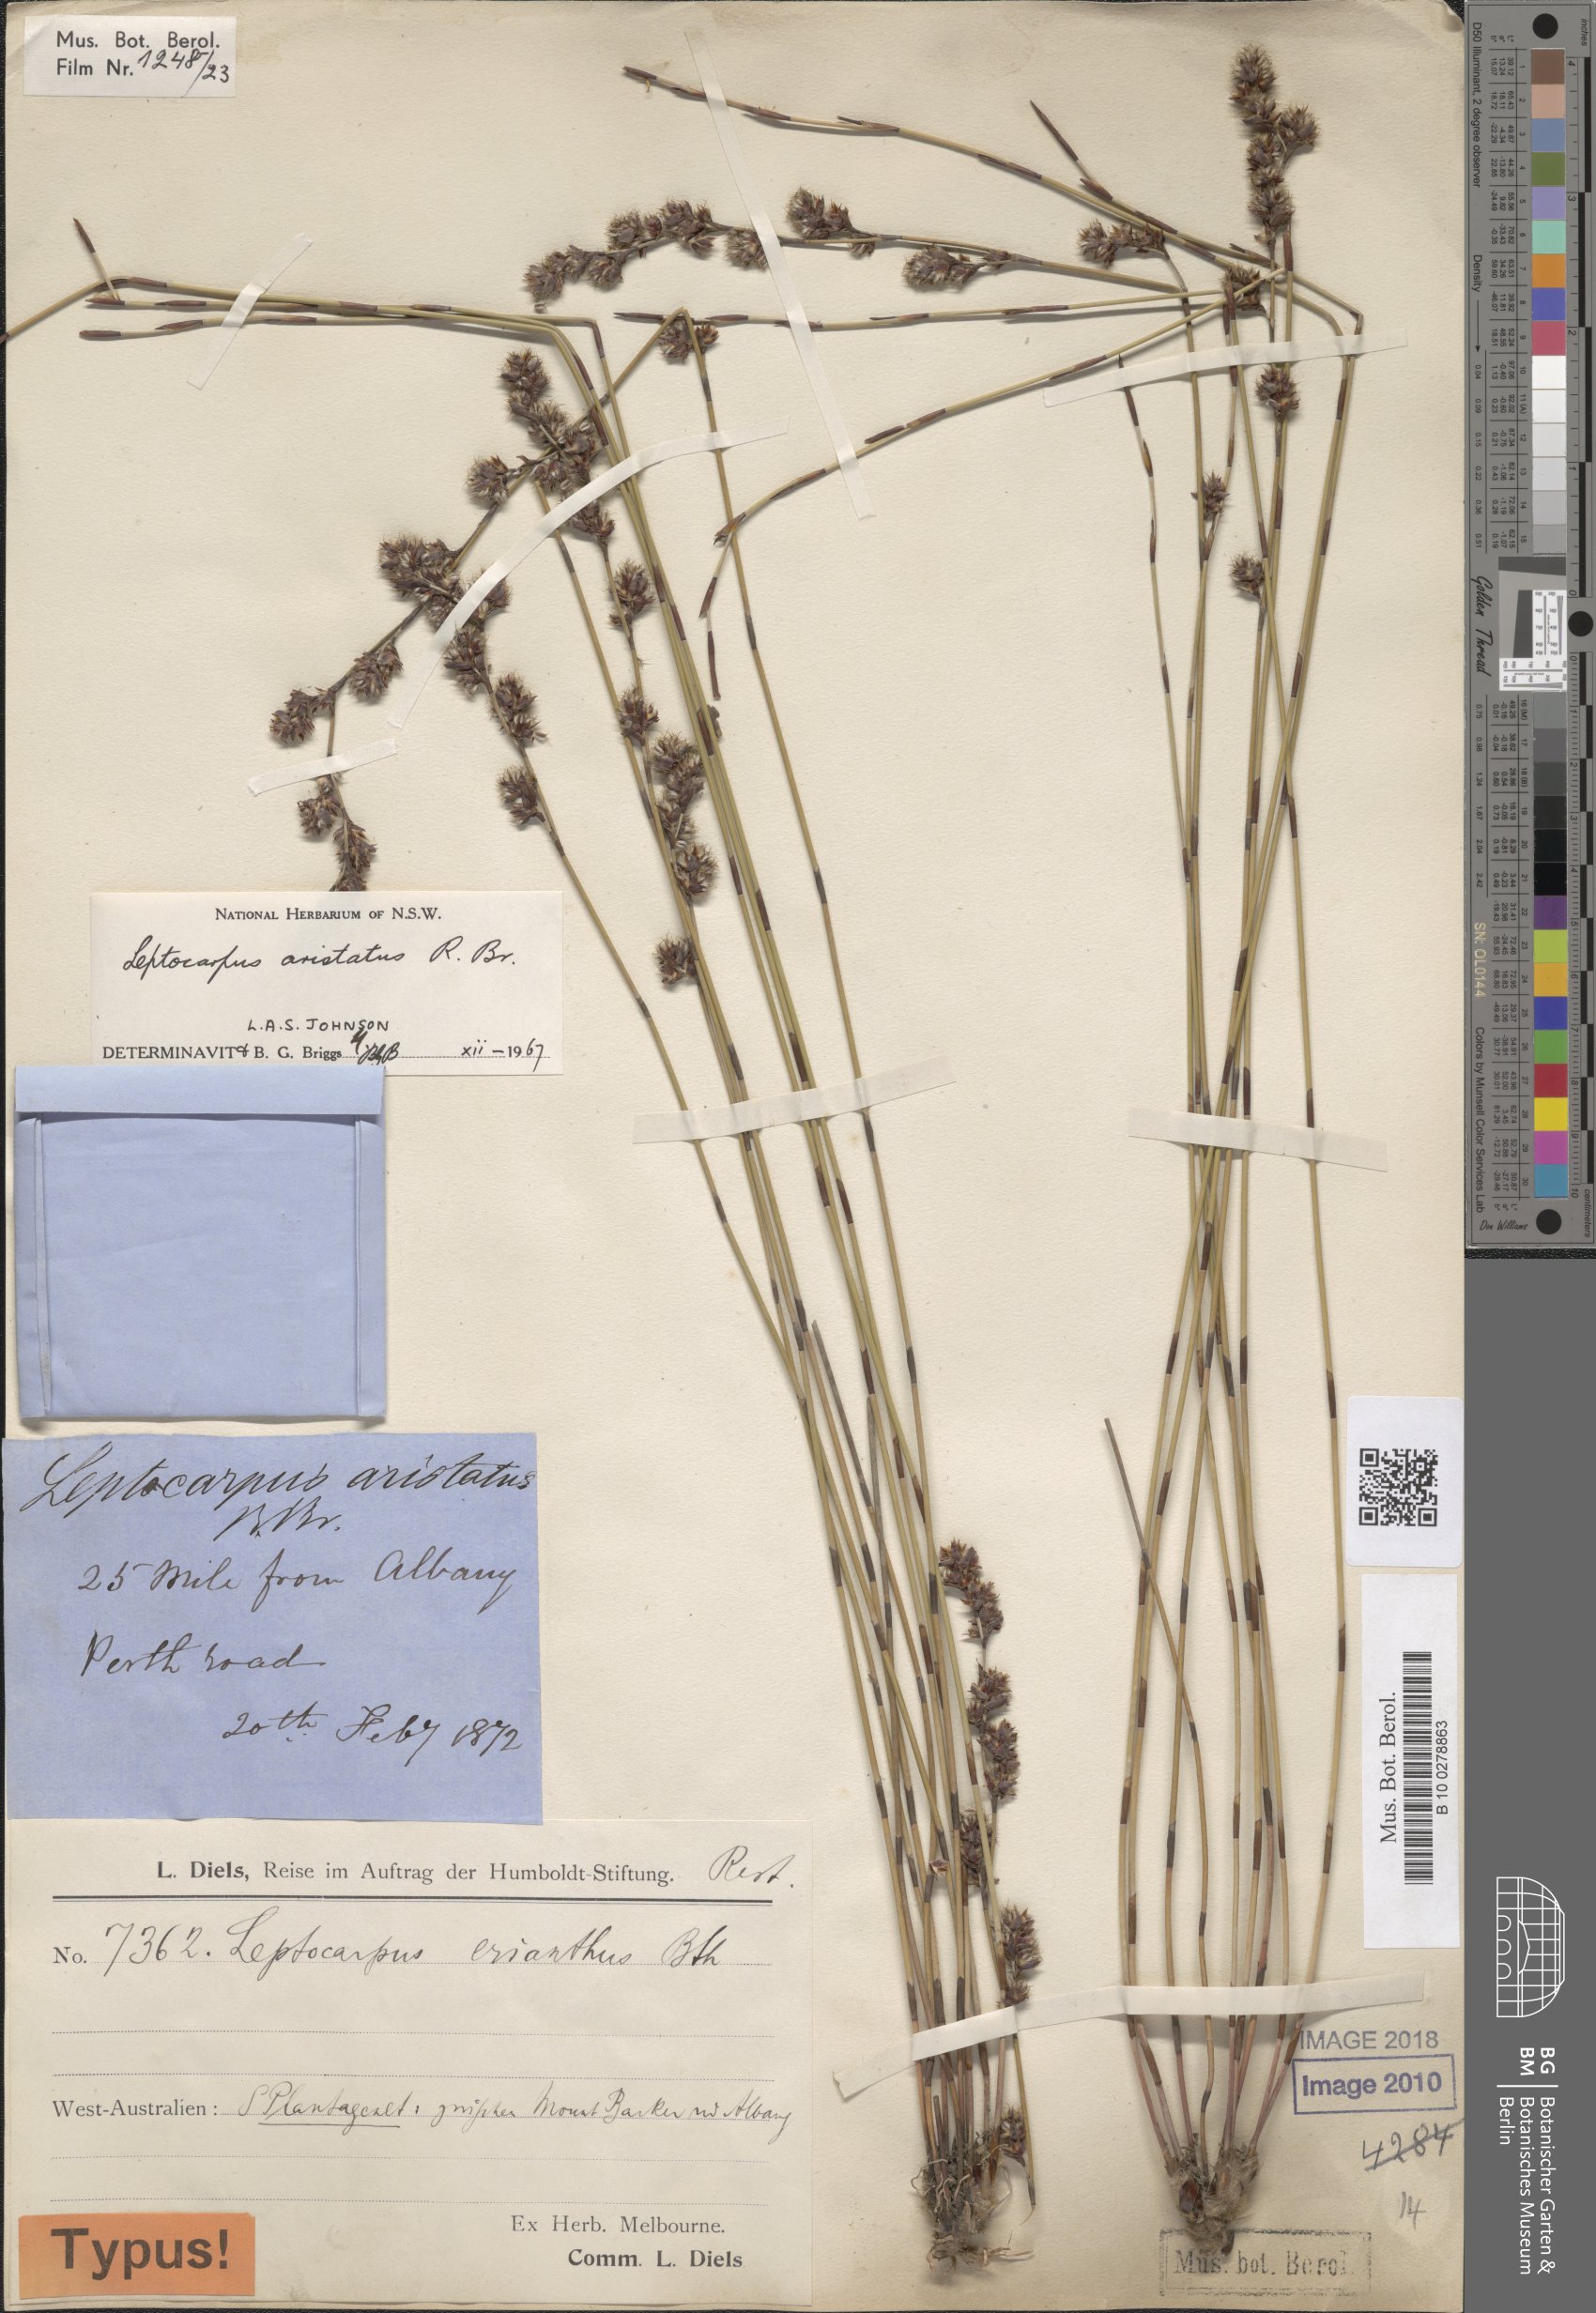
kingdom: Plantae
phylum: Tracheophyta
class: Liliopsida
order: Poales
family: Restionaceae
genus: Chaetanthus
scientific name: Chaetanthus aristatus
